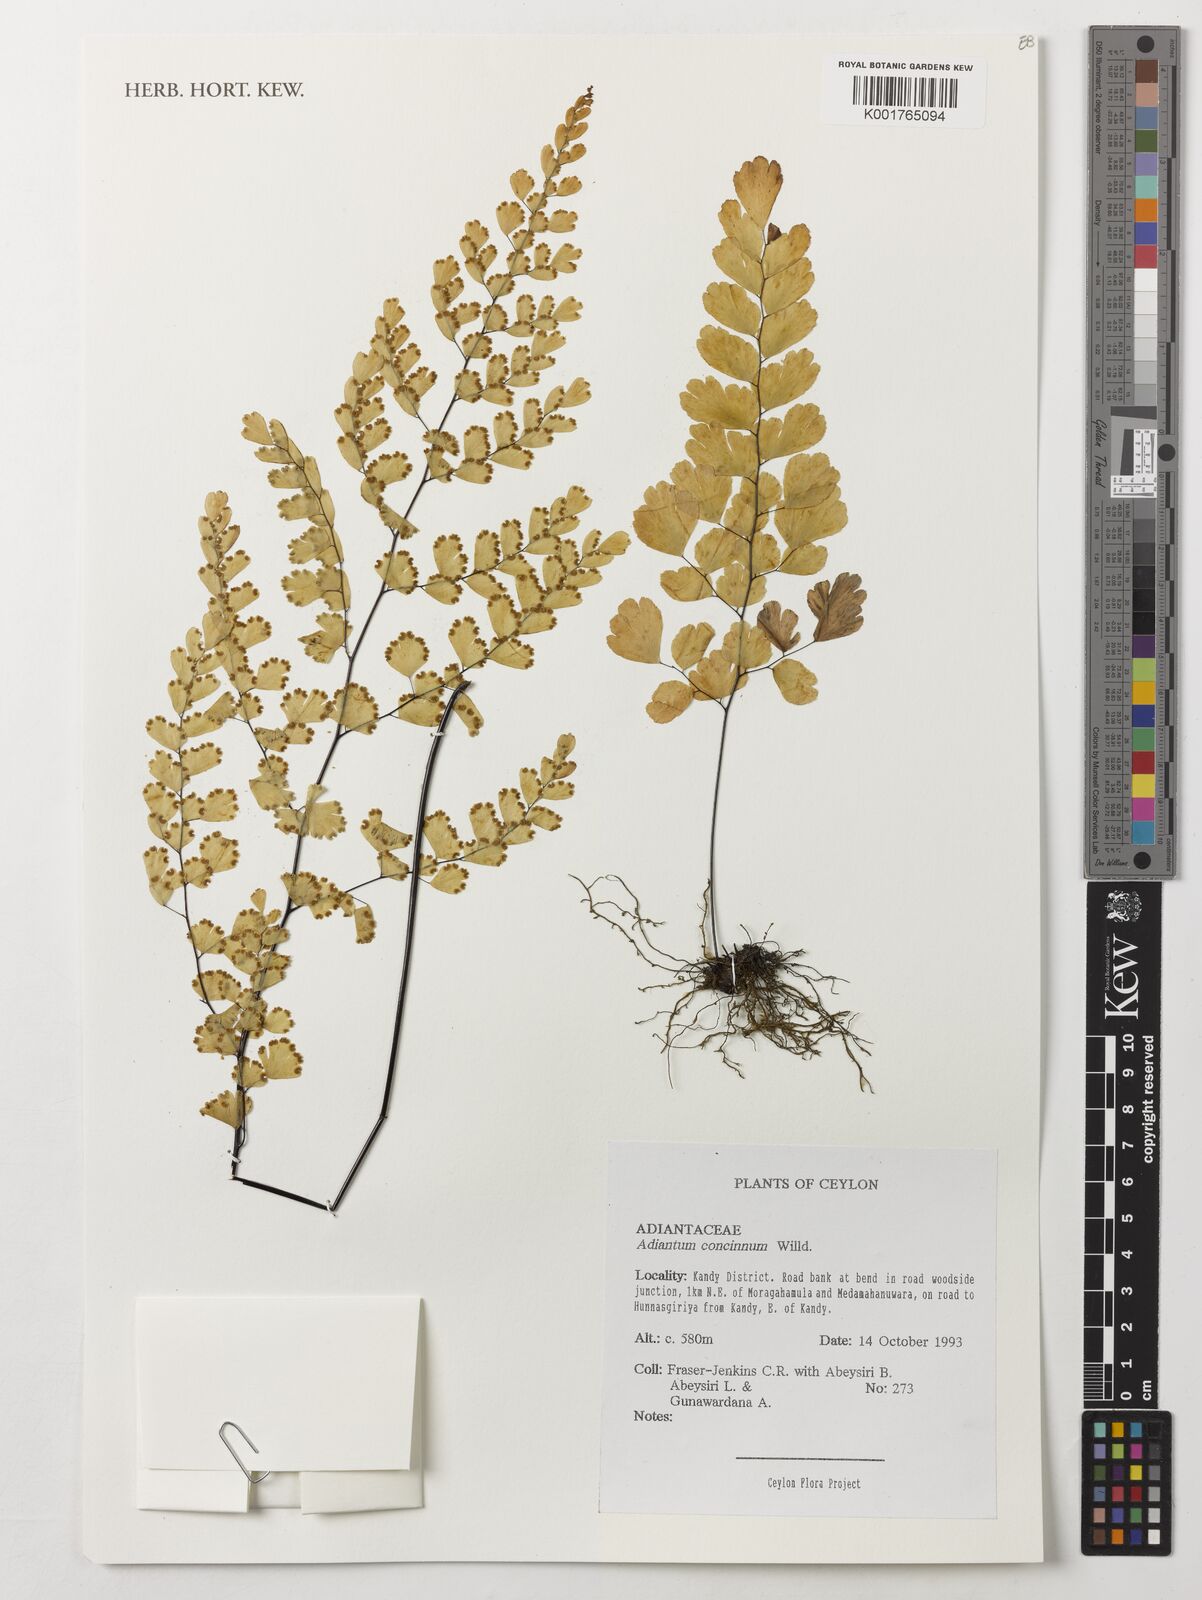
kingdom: Plantae
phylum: Tracheophyta
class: Polypodiopsida
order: Polypodiales
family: Pteridaceae
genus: Adiantum
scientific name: Adiantum concinnum
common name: Brittle maidenhair fern
